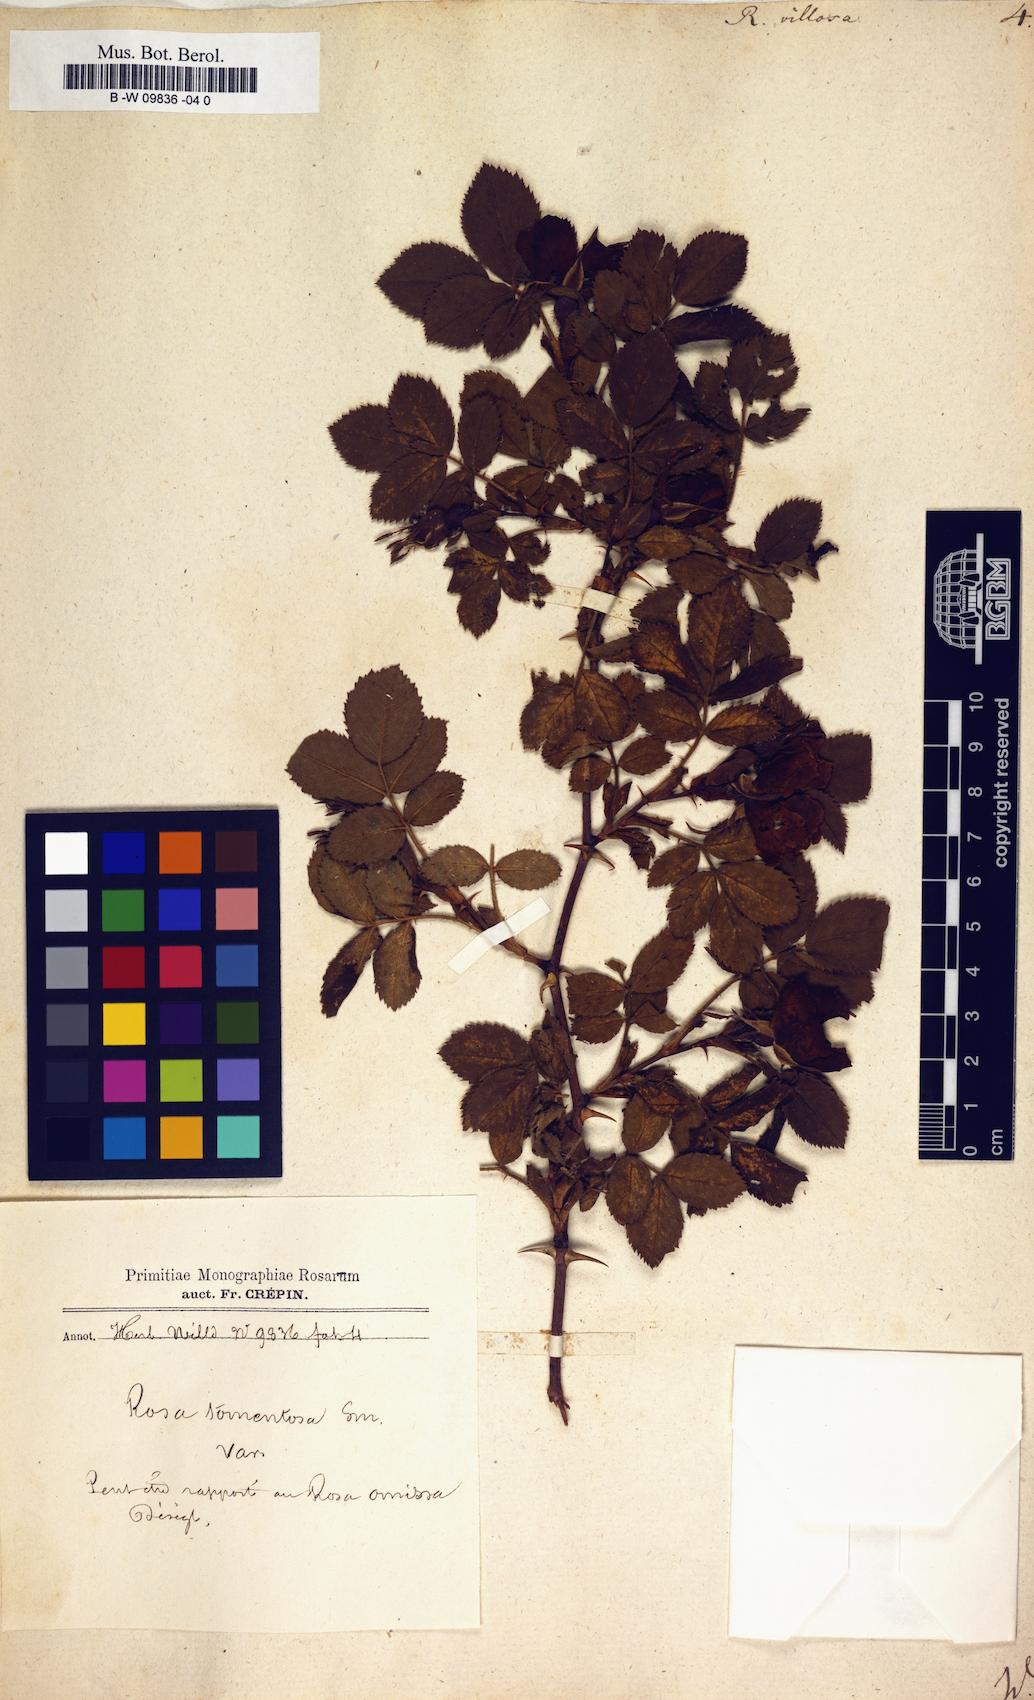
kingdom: Plantae
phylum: Tracheophyta
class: Magnoliopsida
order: Rosales
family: Rosaceae
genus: Rosa
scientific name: Rosa villosa
